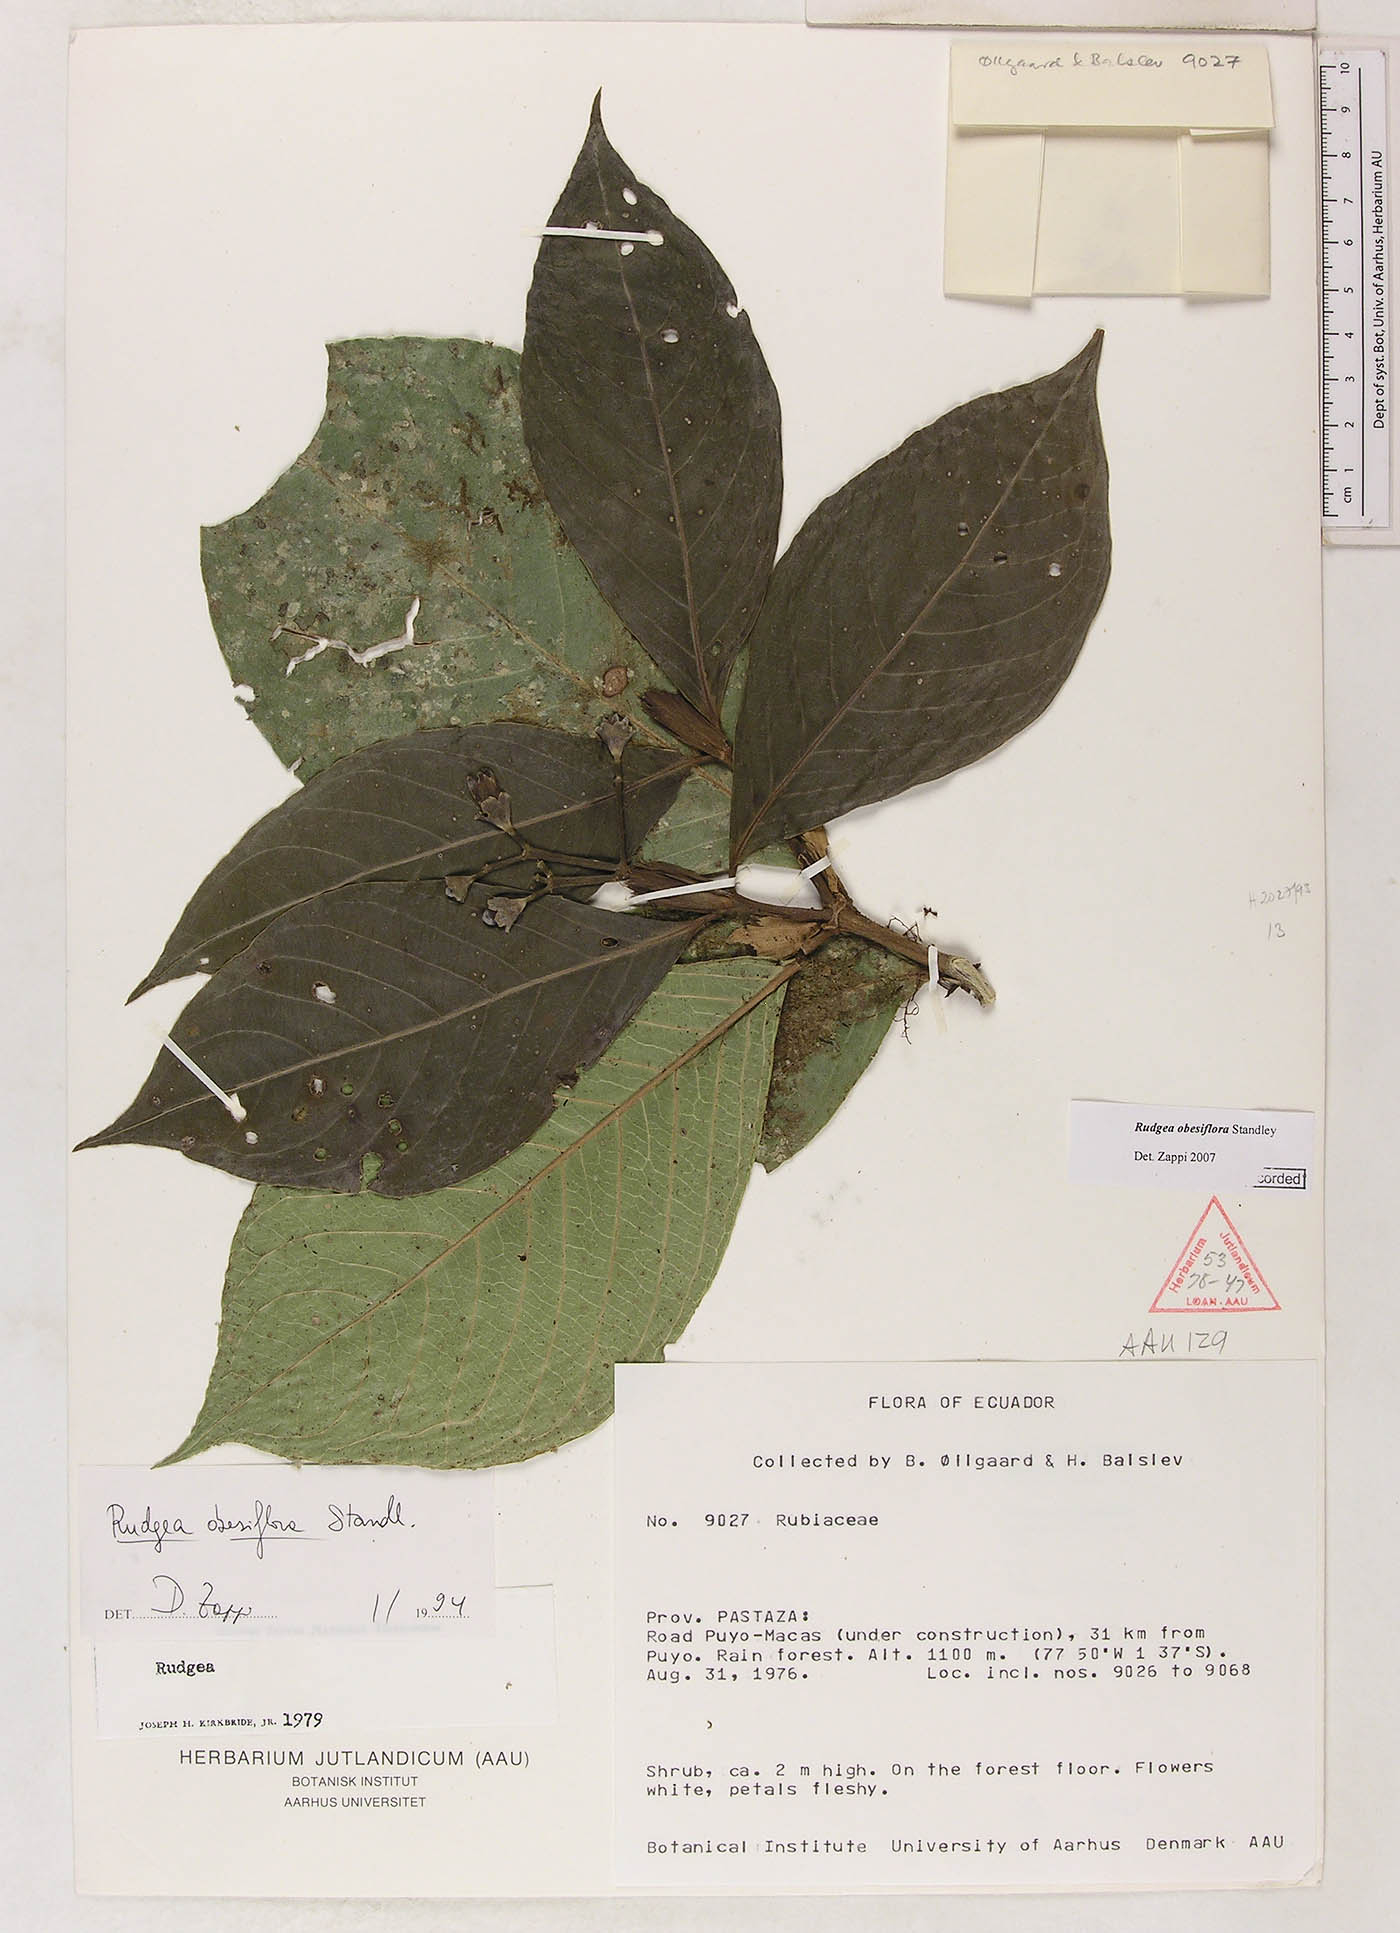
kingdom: Plantae
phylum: Tracheophyta
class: Magnoliopsida
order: Gentianales
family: Rubiaceae
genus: Rudgea
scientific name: Rudgea obesiflora
